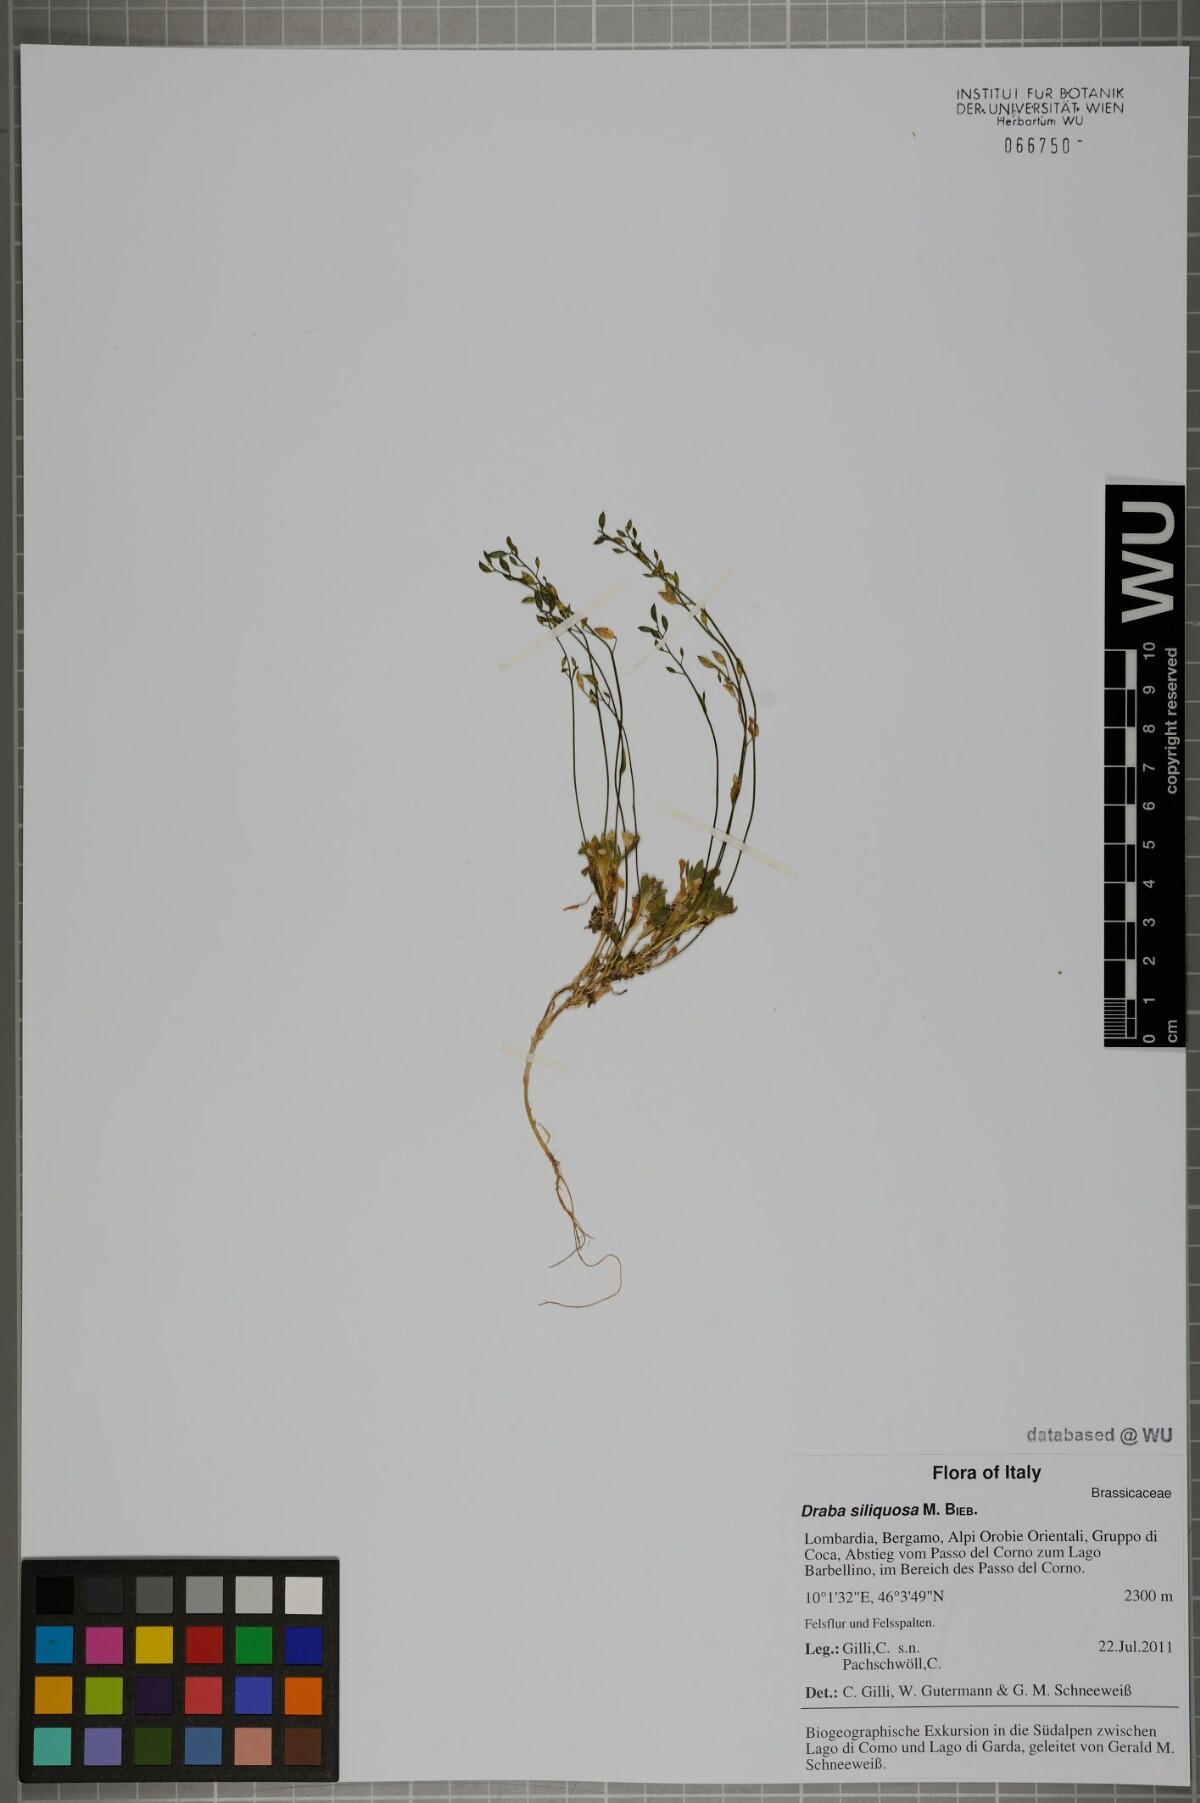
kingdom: Plantae
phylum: Tracheophyta
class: Magnoliopsida
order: Brassicales
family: Brassicaceae
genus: Draba
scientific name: Draba siliquosa
